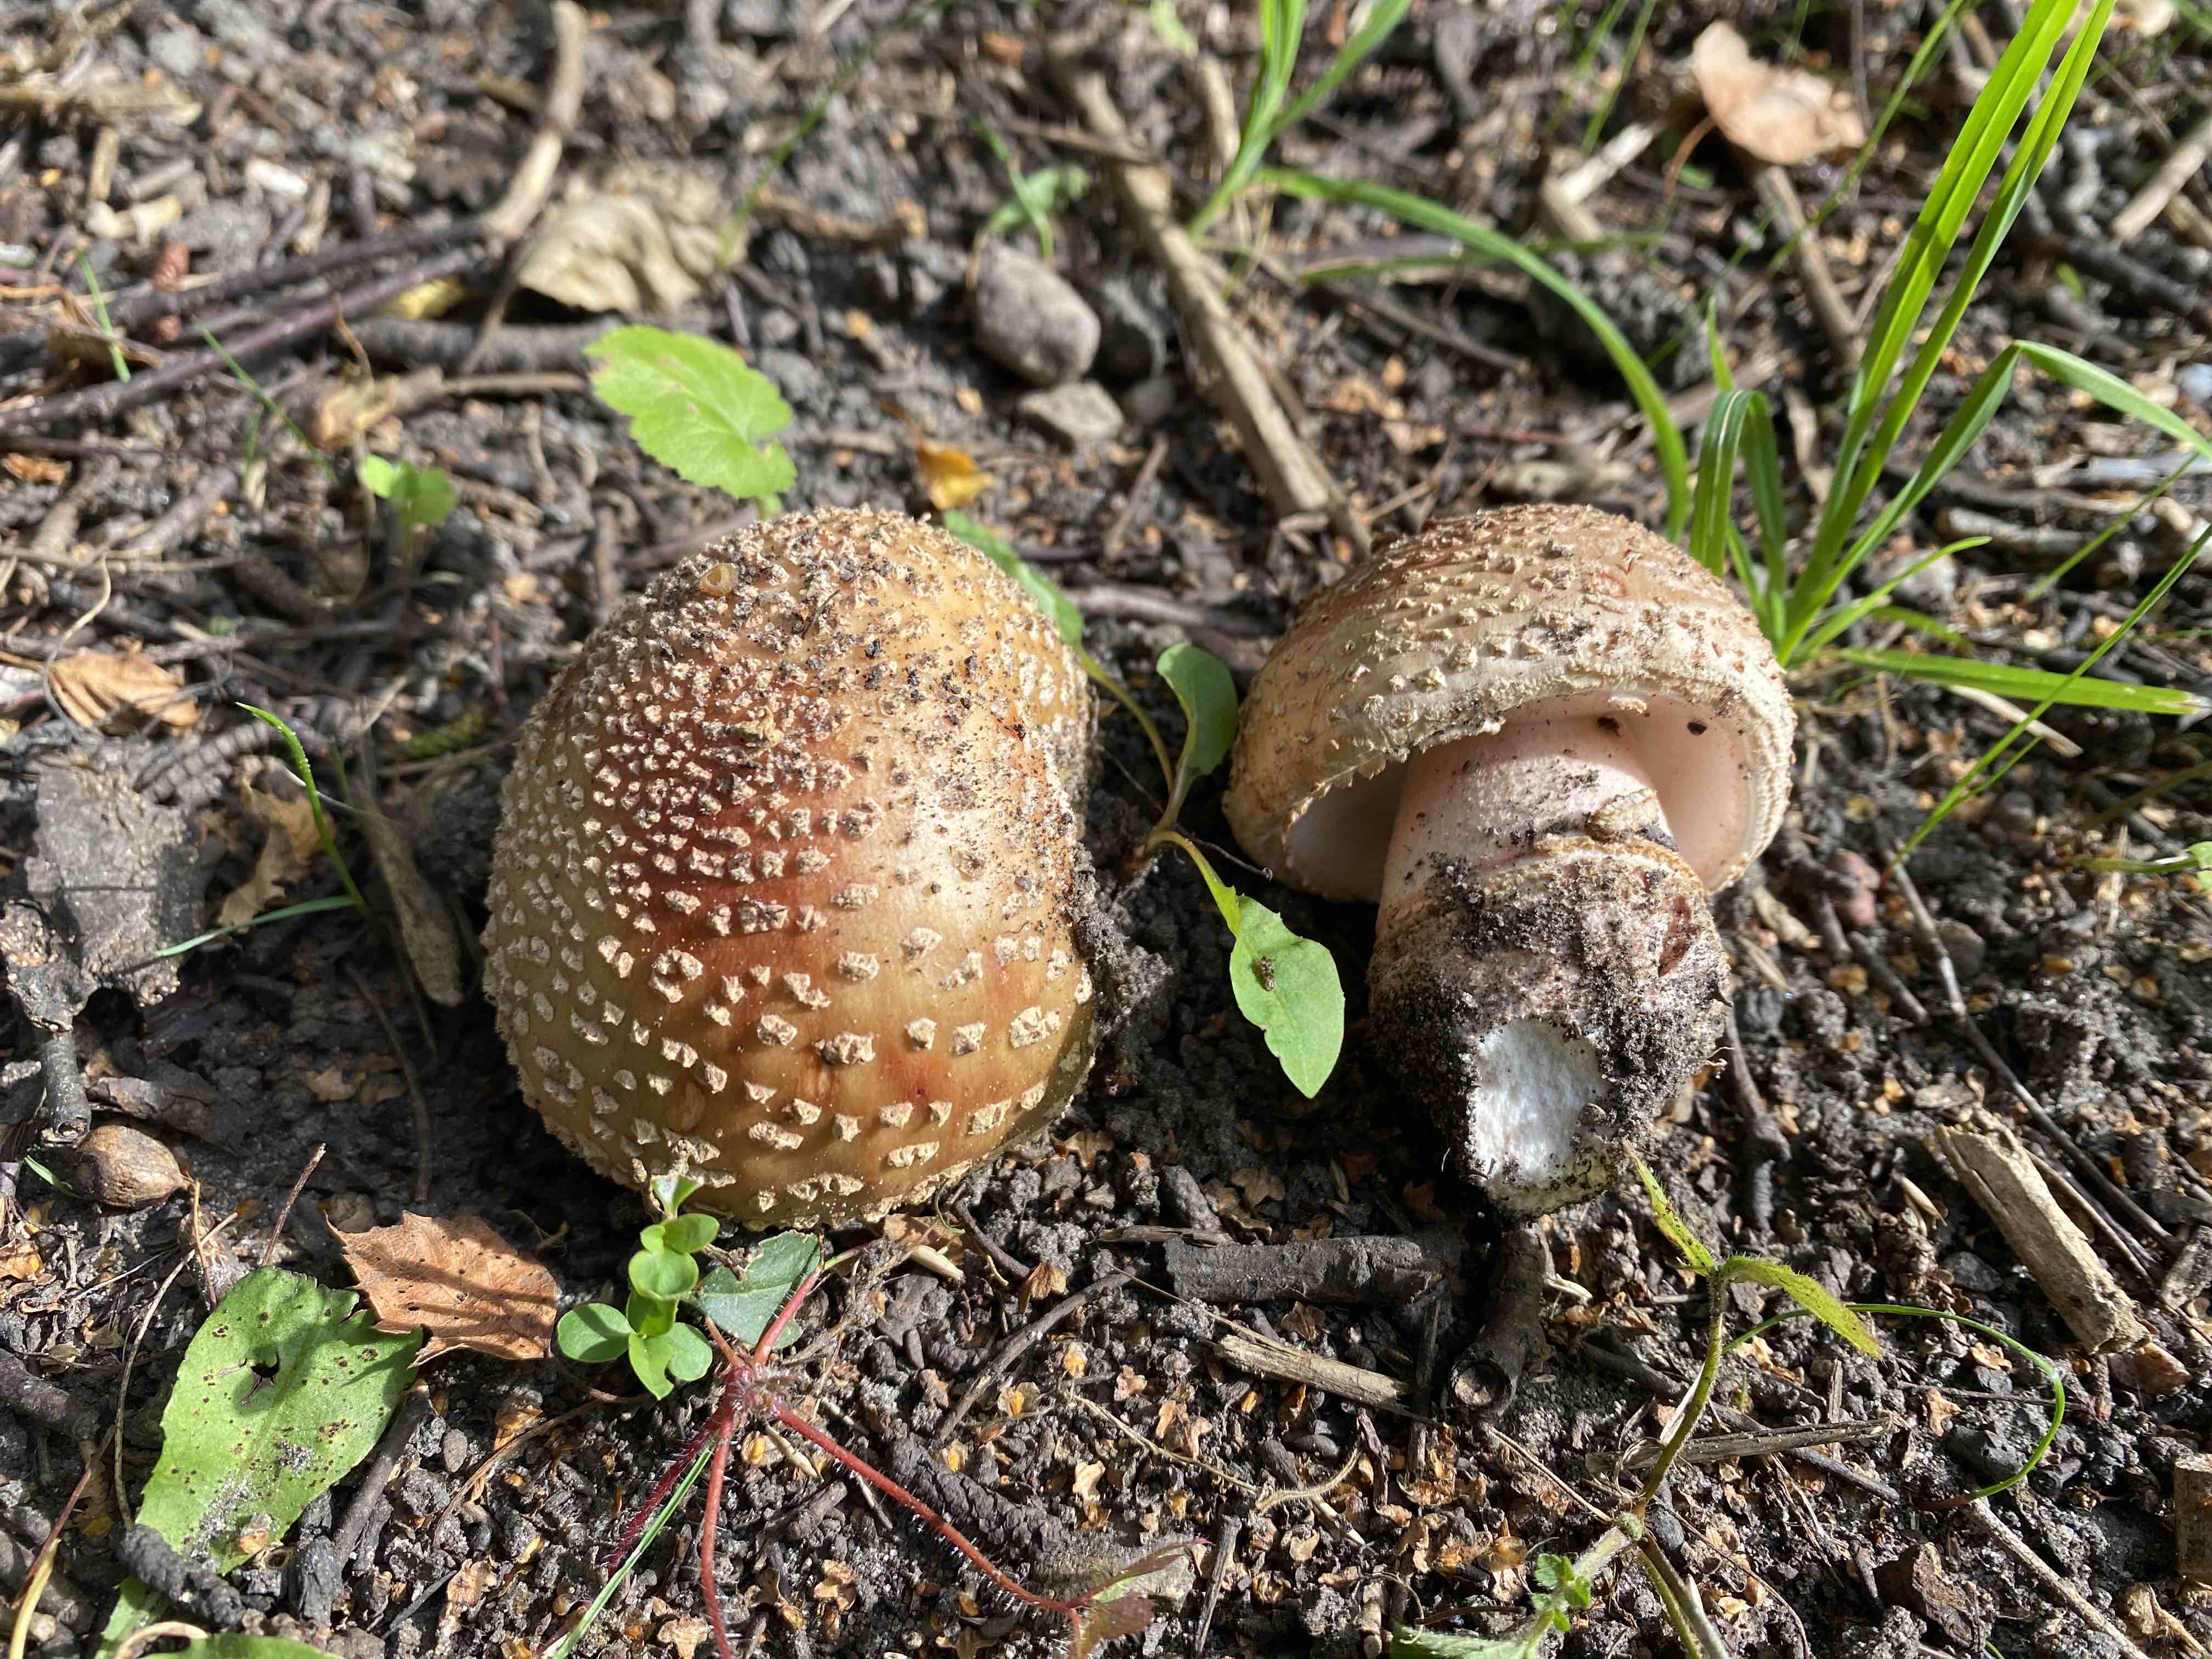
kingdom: Fungi
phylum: Basidiomycota
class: Agaricomycetes
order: Agaricales
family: Amanitaceae
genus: Amanita
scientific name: Amanita rubescens
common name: rødmende fluesvamp
